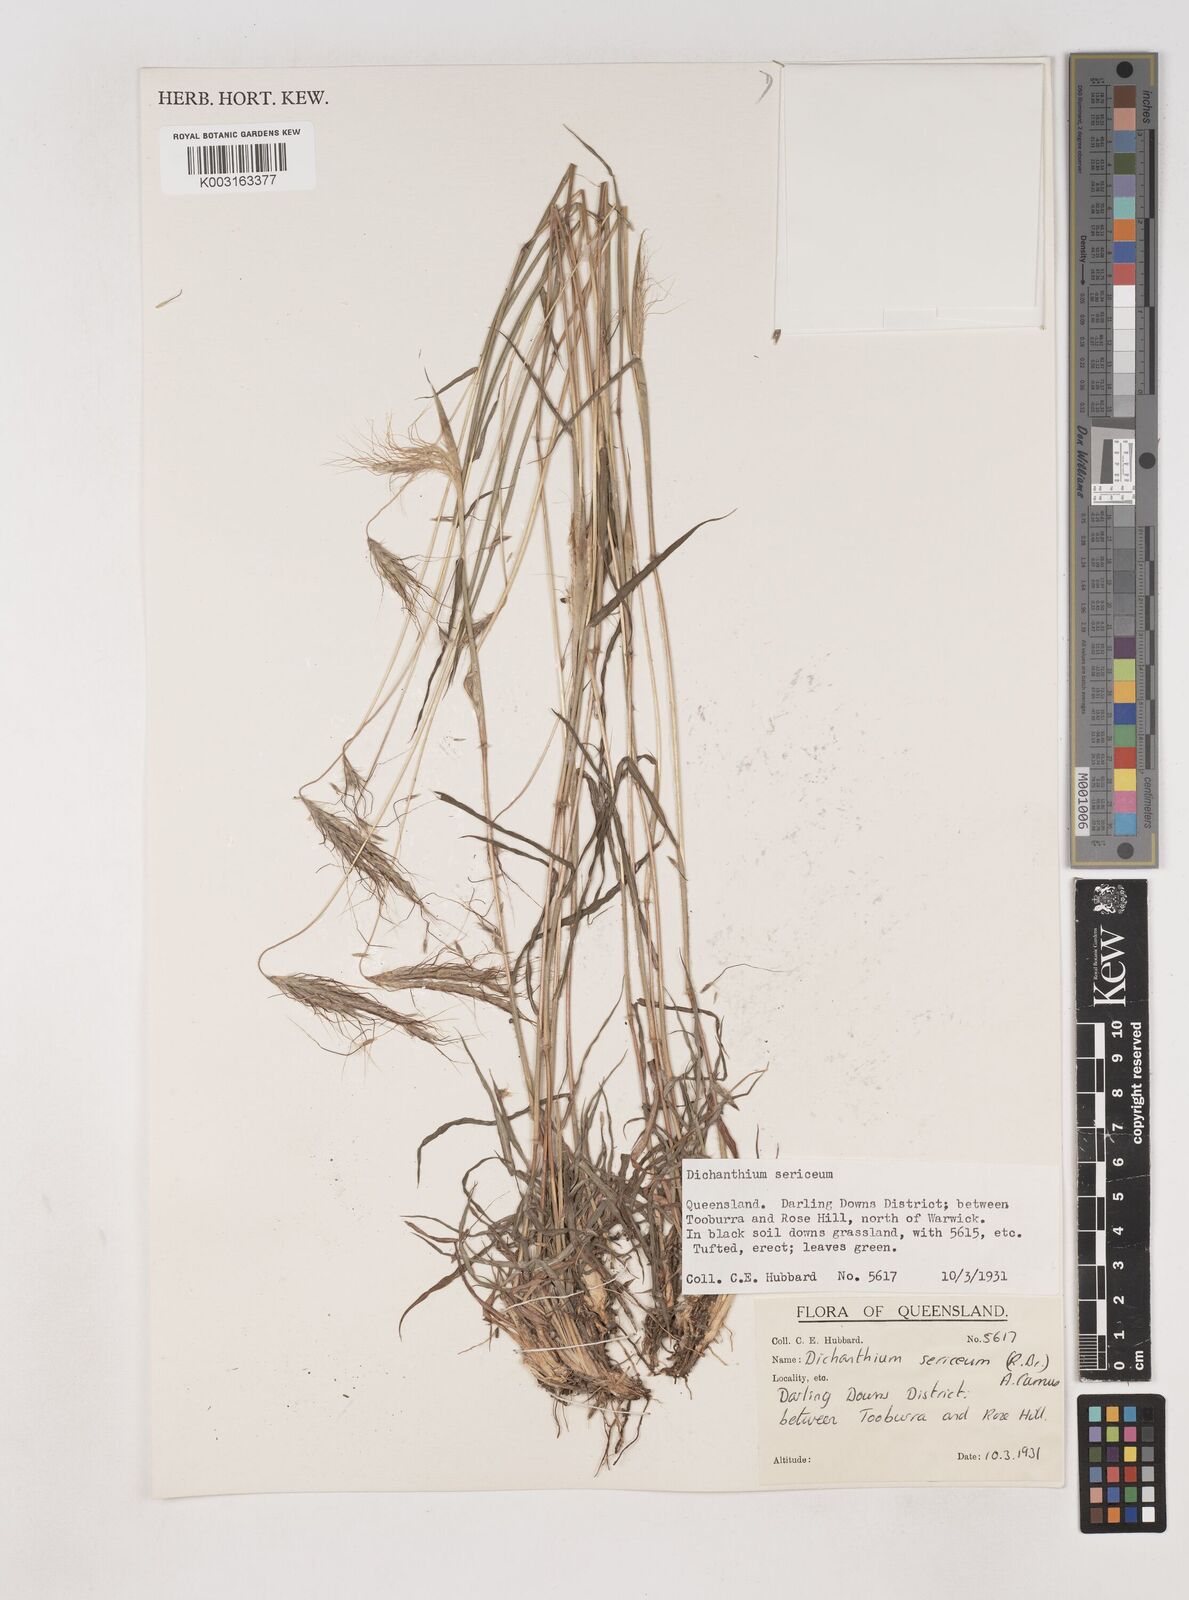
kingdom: Plantae
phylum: Tracheophyta
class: Liliopsida
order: Poales
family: Poaceae
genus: Dichanthium
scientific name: Dichanthium sericeum
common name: Silky bluestem
